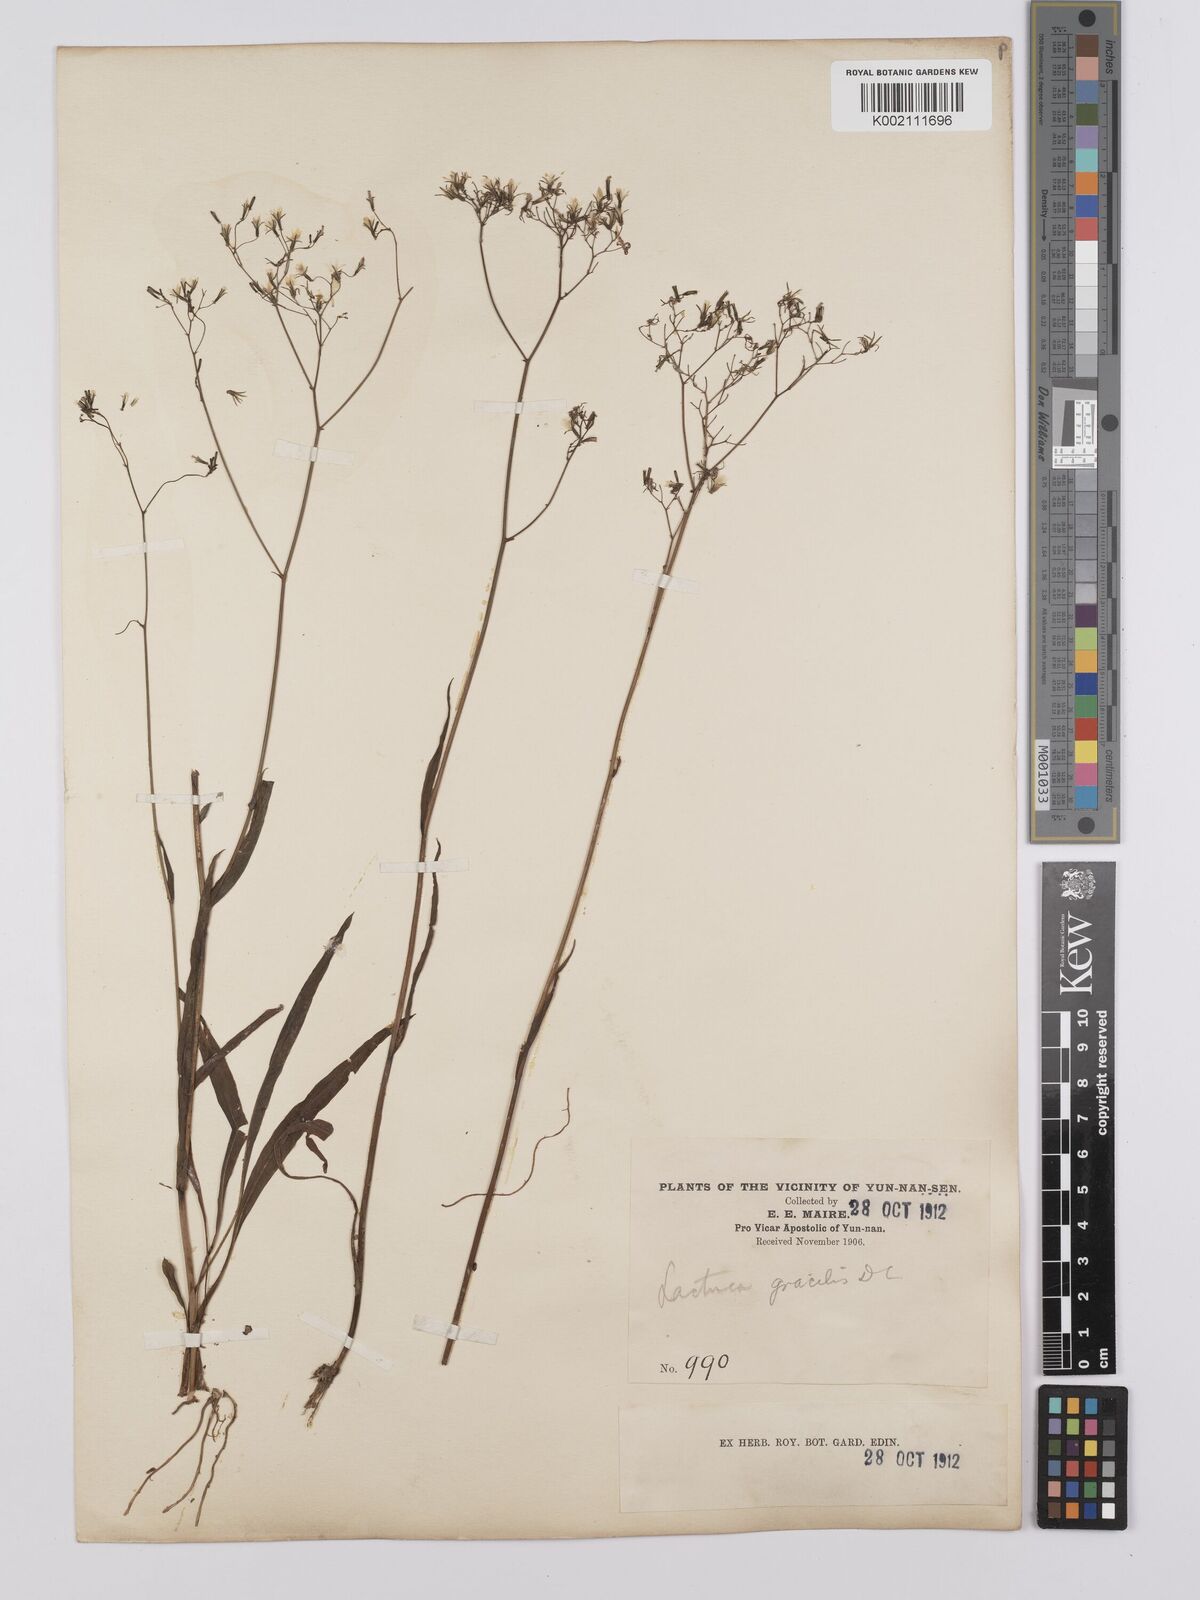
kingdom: Plantae
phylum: Tracheophyta
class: Magnoliopsida
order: Asterales
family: Asteraceae
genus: Ixeridium
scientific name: Ixeridium
